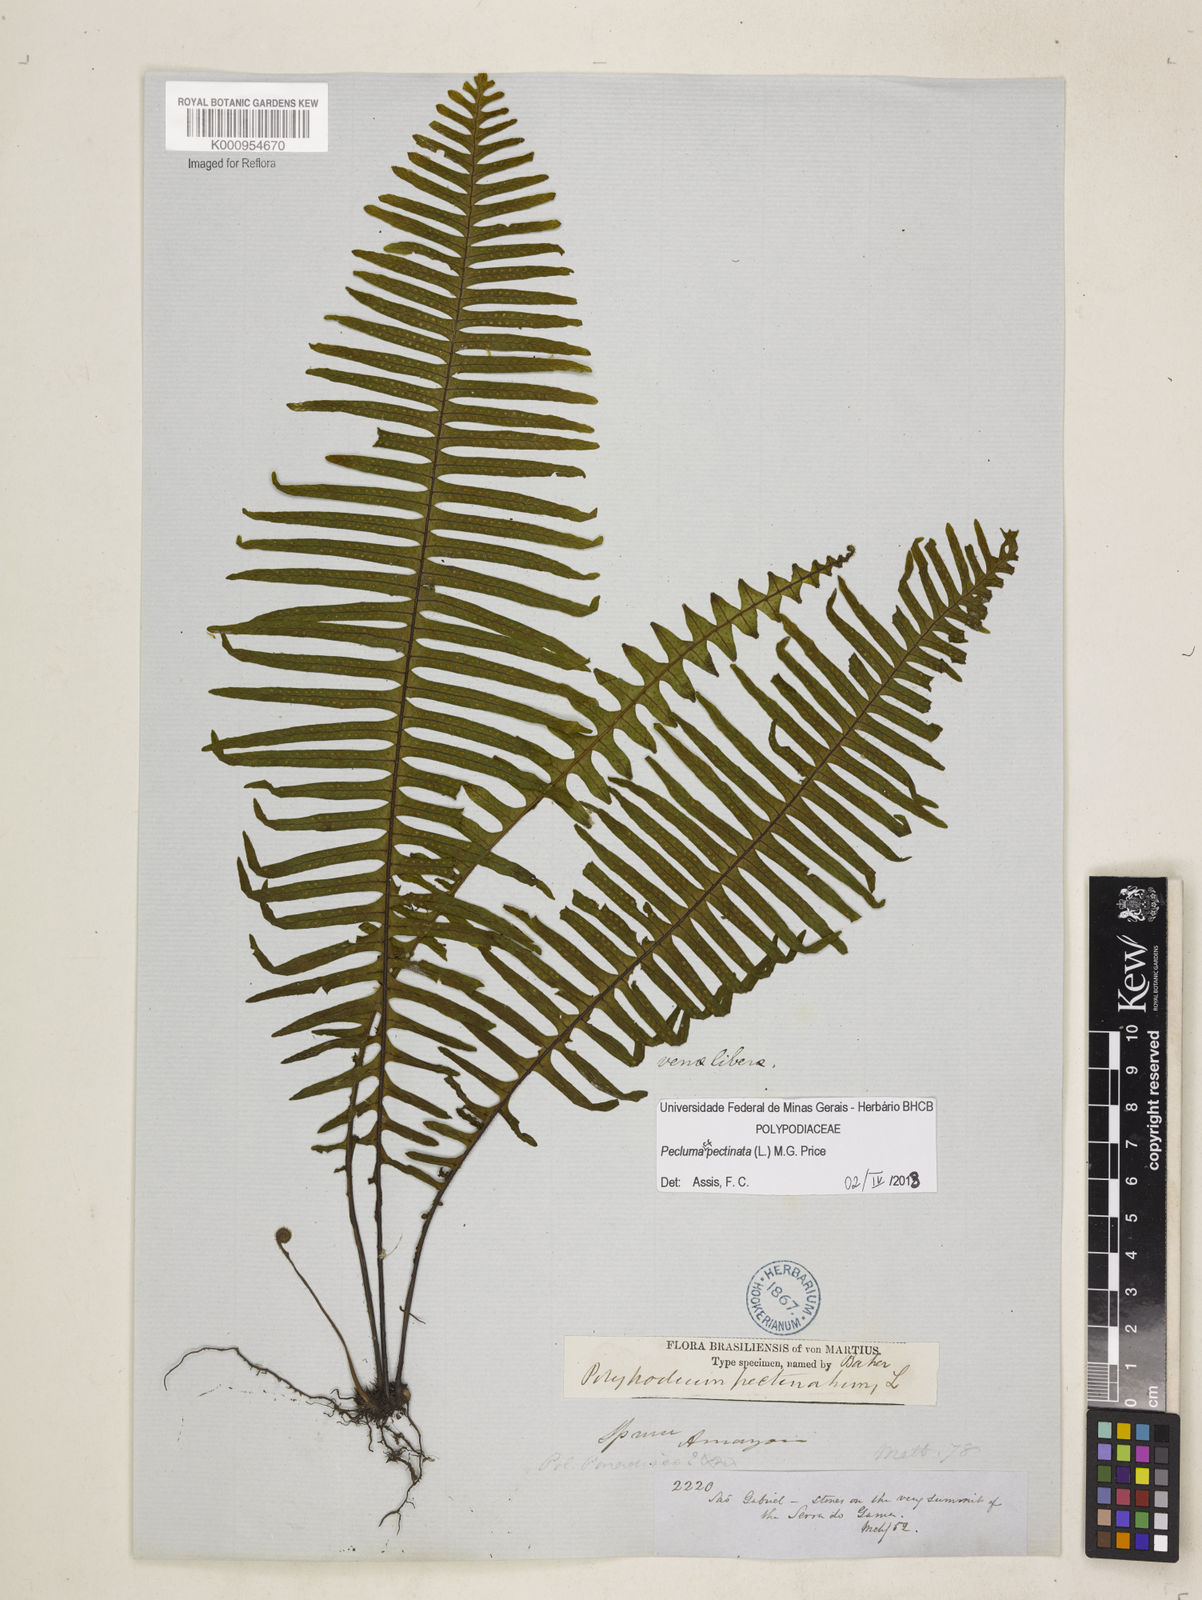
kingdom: Plantae
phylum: Tracheophyta
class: Polypodiopsida
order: Polypodiales
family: Polypodiaceae
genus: Pecluma
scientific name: Pecluma pectinata
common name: Msasa fern
